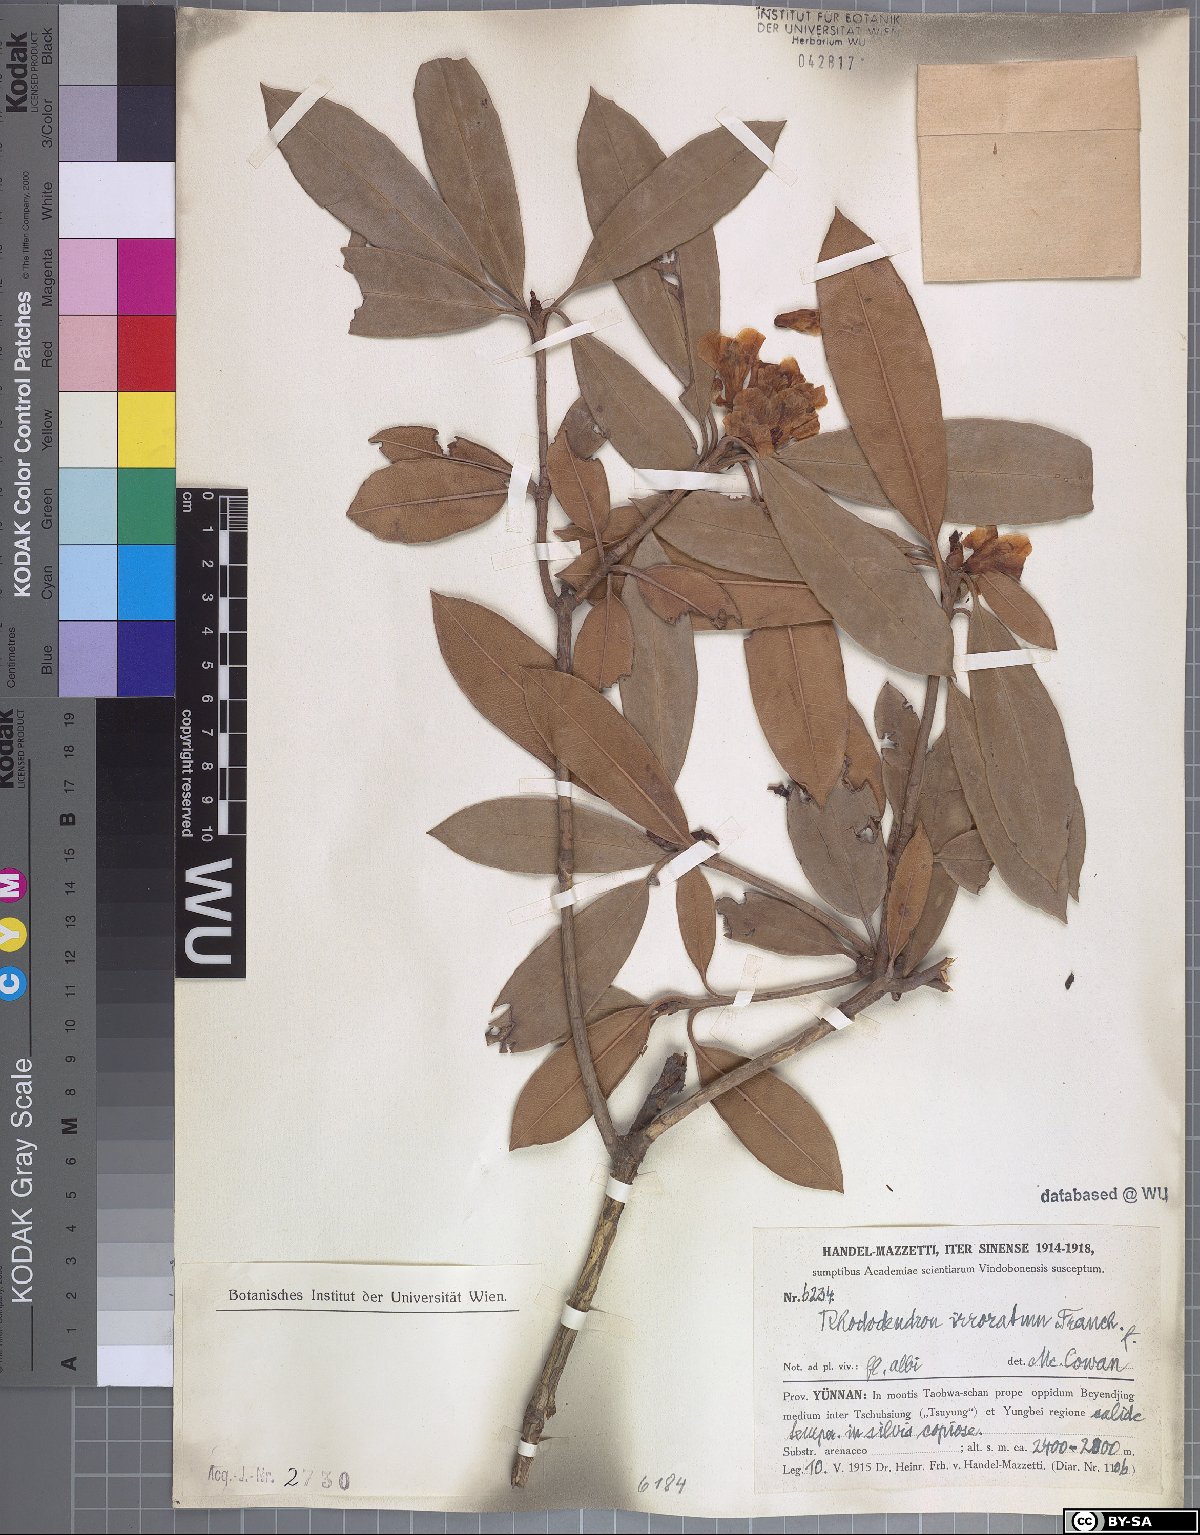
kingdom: Plantae
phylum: Tracheophyta
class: Magnoliopsida
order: Ericales
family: Ericaceae
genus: Rhododendron
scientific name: Rhododendron irroratum
